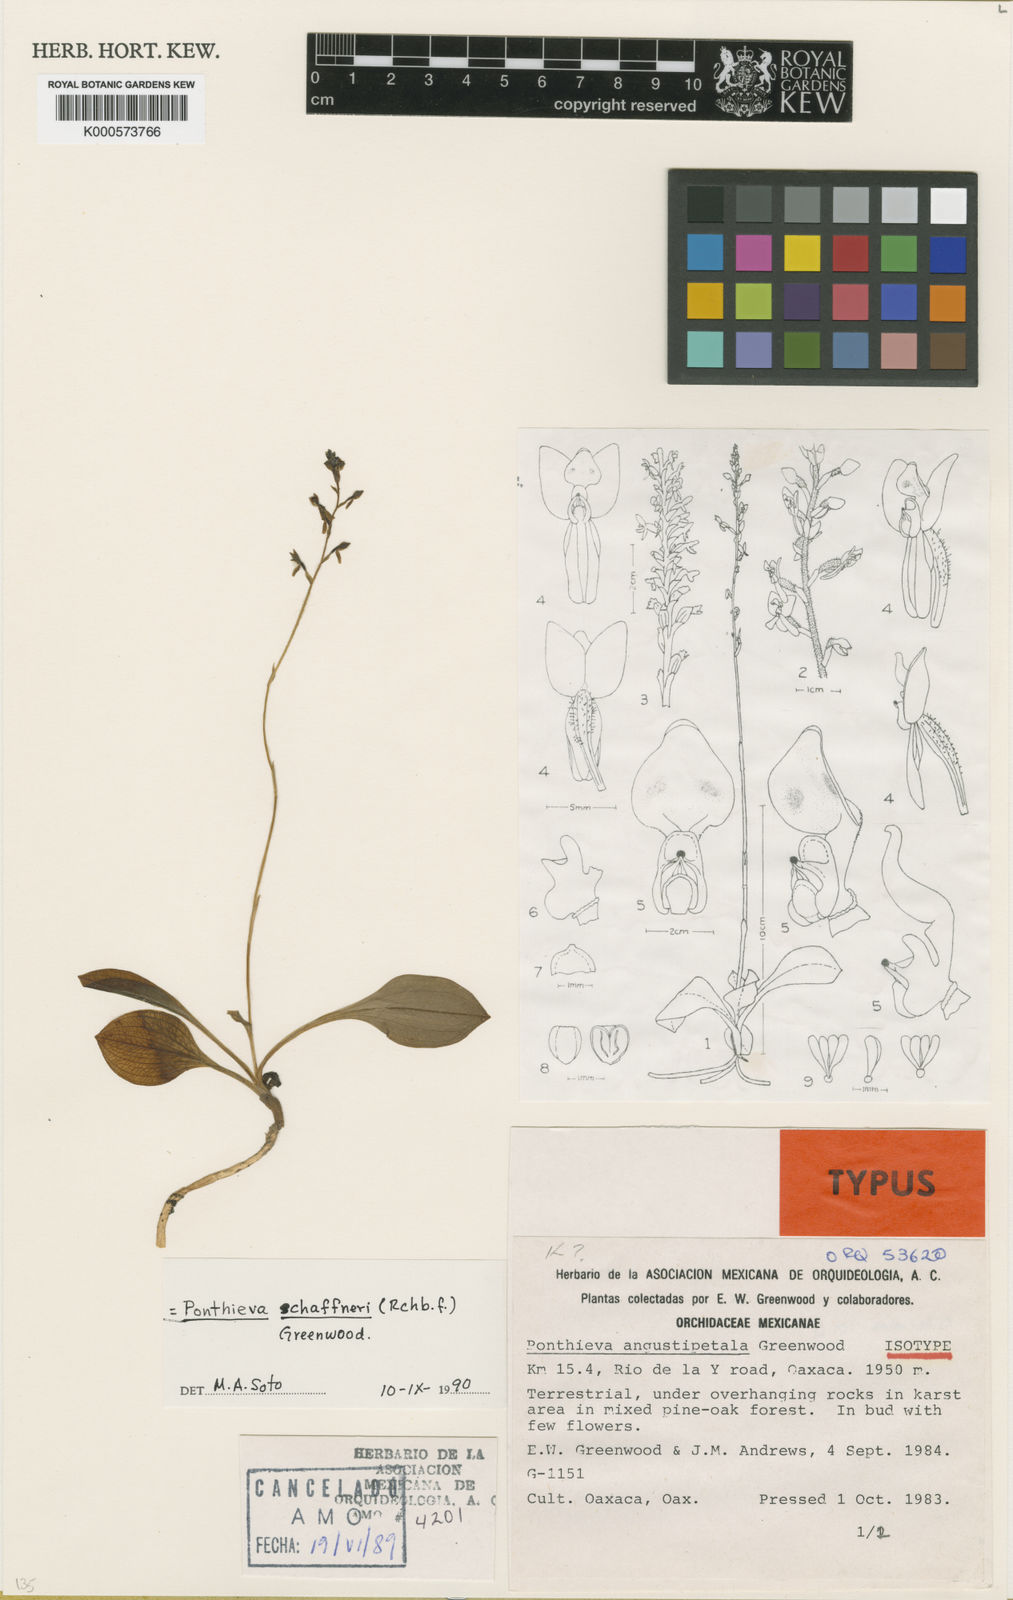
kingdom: Plantae
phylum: Tracheophyta
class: Liliopsida
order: Asparagales
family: Orchidaceae
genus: Ponthieva
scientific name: Ponthieva schaffneri
